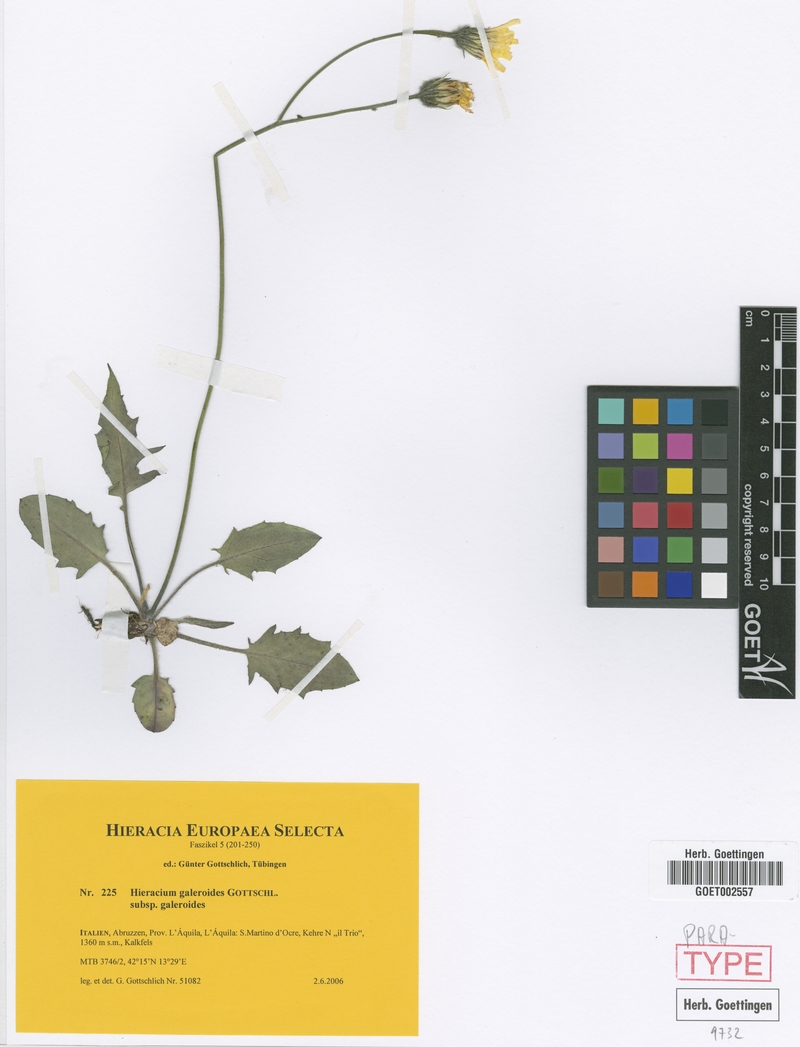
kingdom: Plantae
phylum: Tracheophyta
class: Magnoliopsida
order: Asterales
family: Asteraceae
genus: Hieracium
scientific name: Hieracium galeroides
